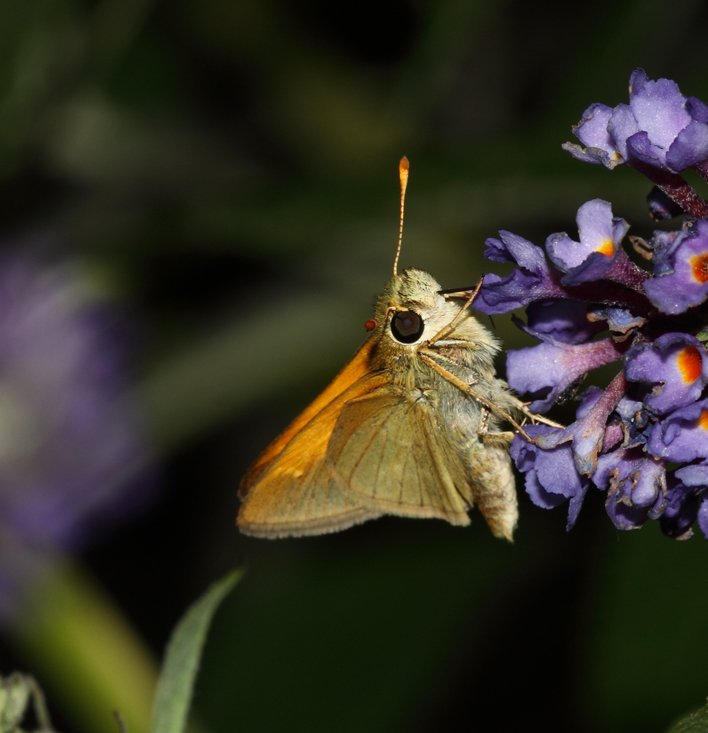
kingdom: Animalia
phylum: Arthropoda
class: Insecta
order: Lepidoptera
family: Hesperiidae
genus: Polites
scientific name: Polites themistocles
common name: Tawny-edged Skipper
